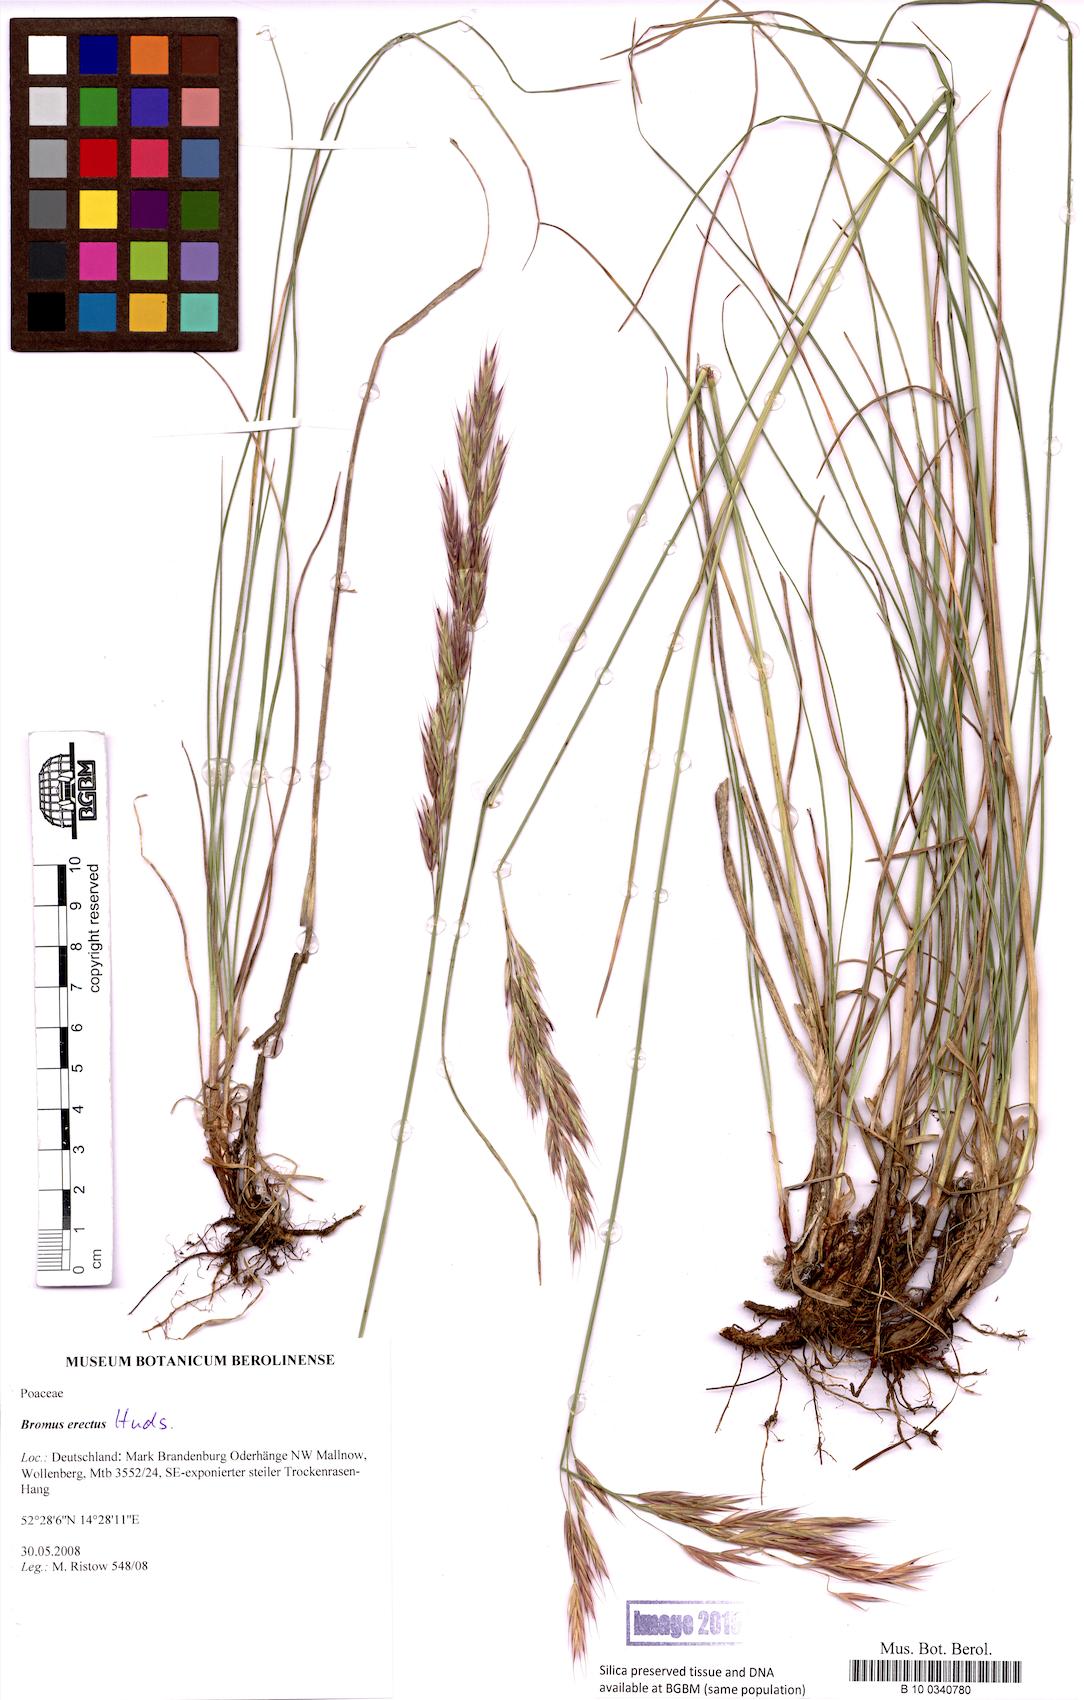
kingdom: Plantae
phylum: Tracheophyta
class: Liliopsida
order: Poales
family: Poaceae
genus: Bromus
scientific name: Bromus erectus
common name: Erect brome
